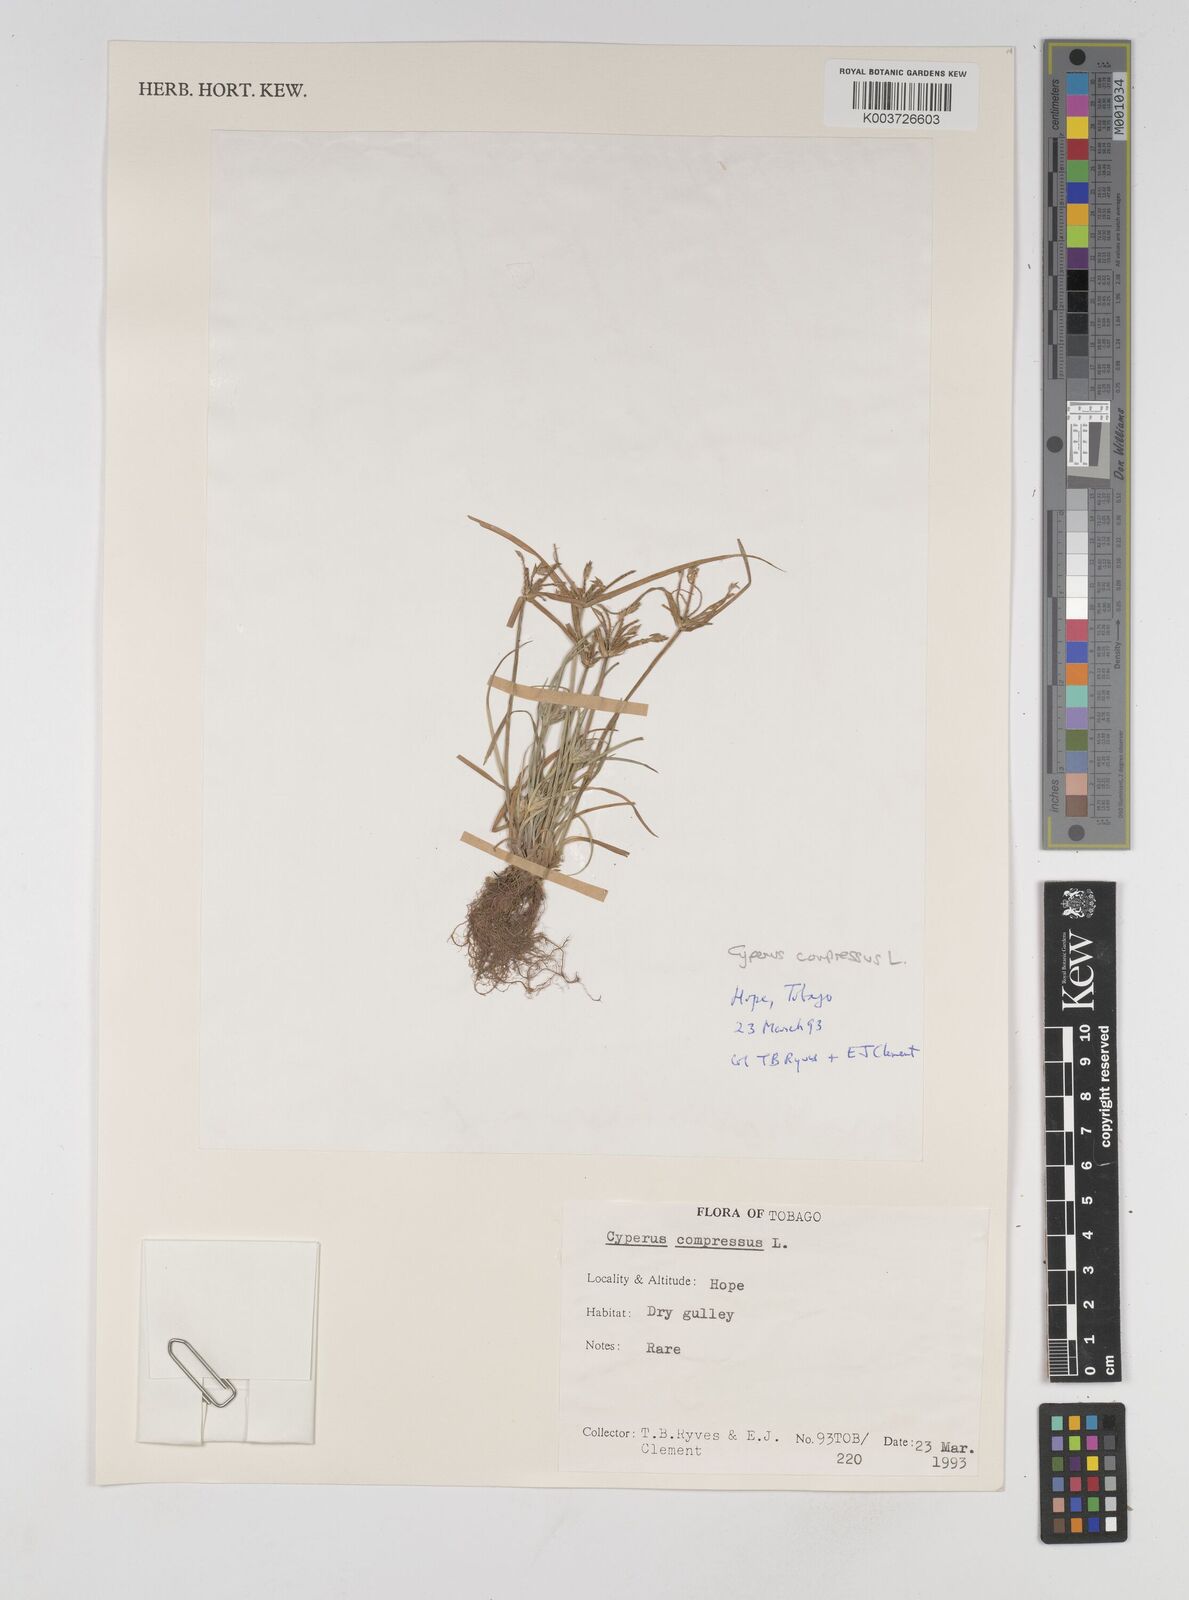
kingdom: Plantae
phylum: Tracheophyta
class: Liliopsida
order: Poales
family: Cyperaceae
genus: Cyperus
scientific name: Cyperus compressus
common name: Poorland flatsedge
